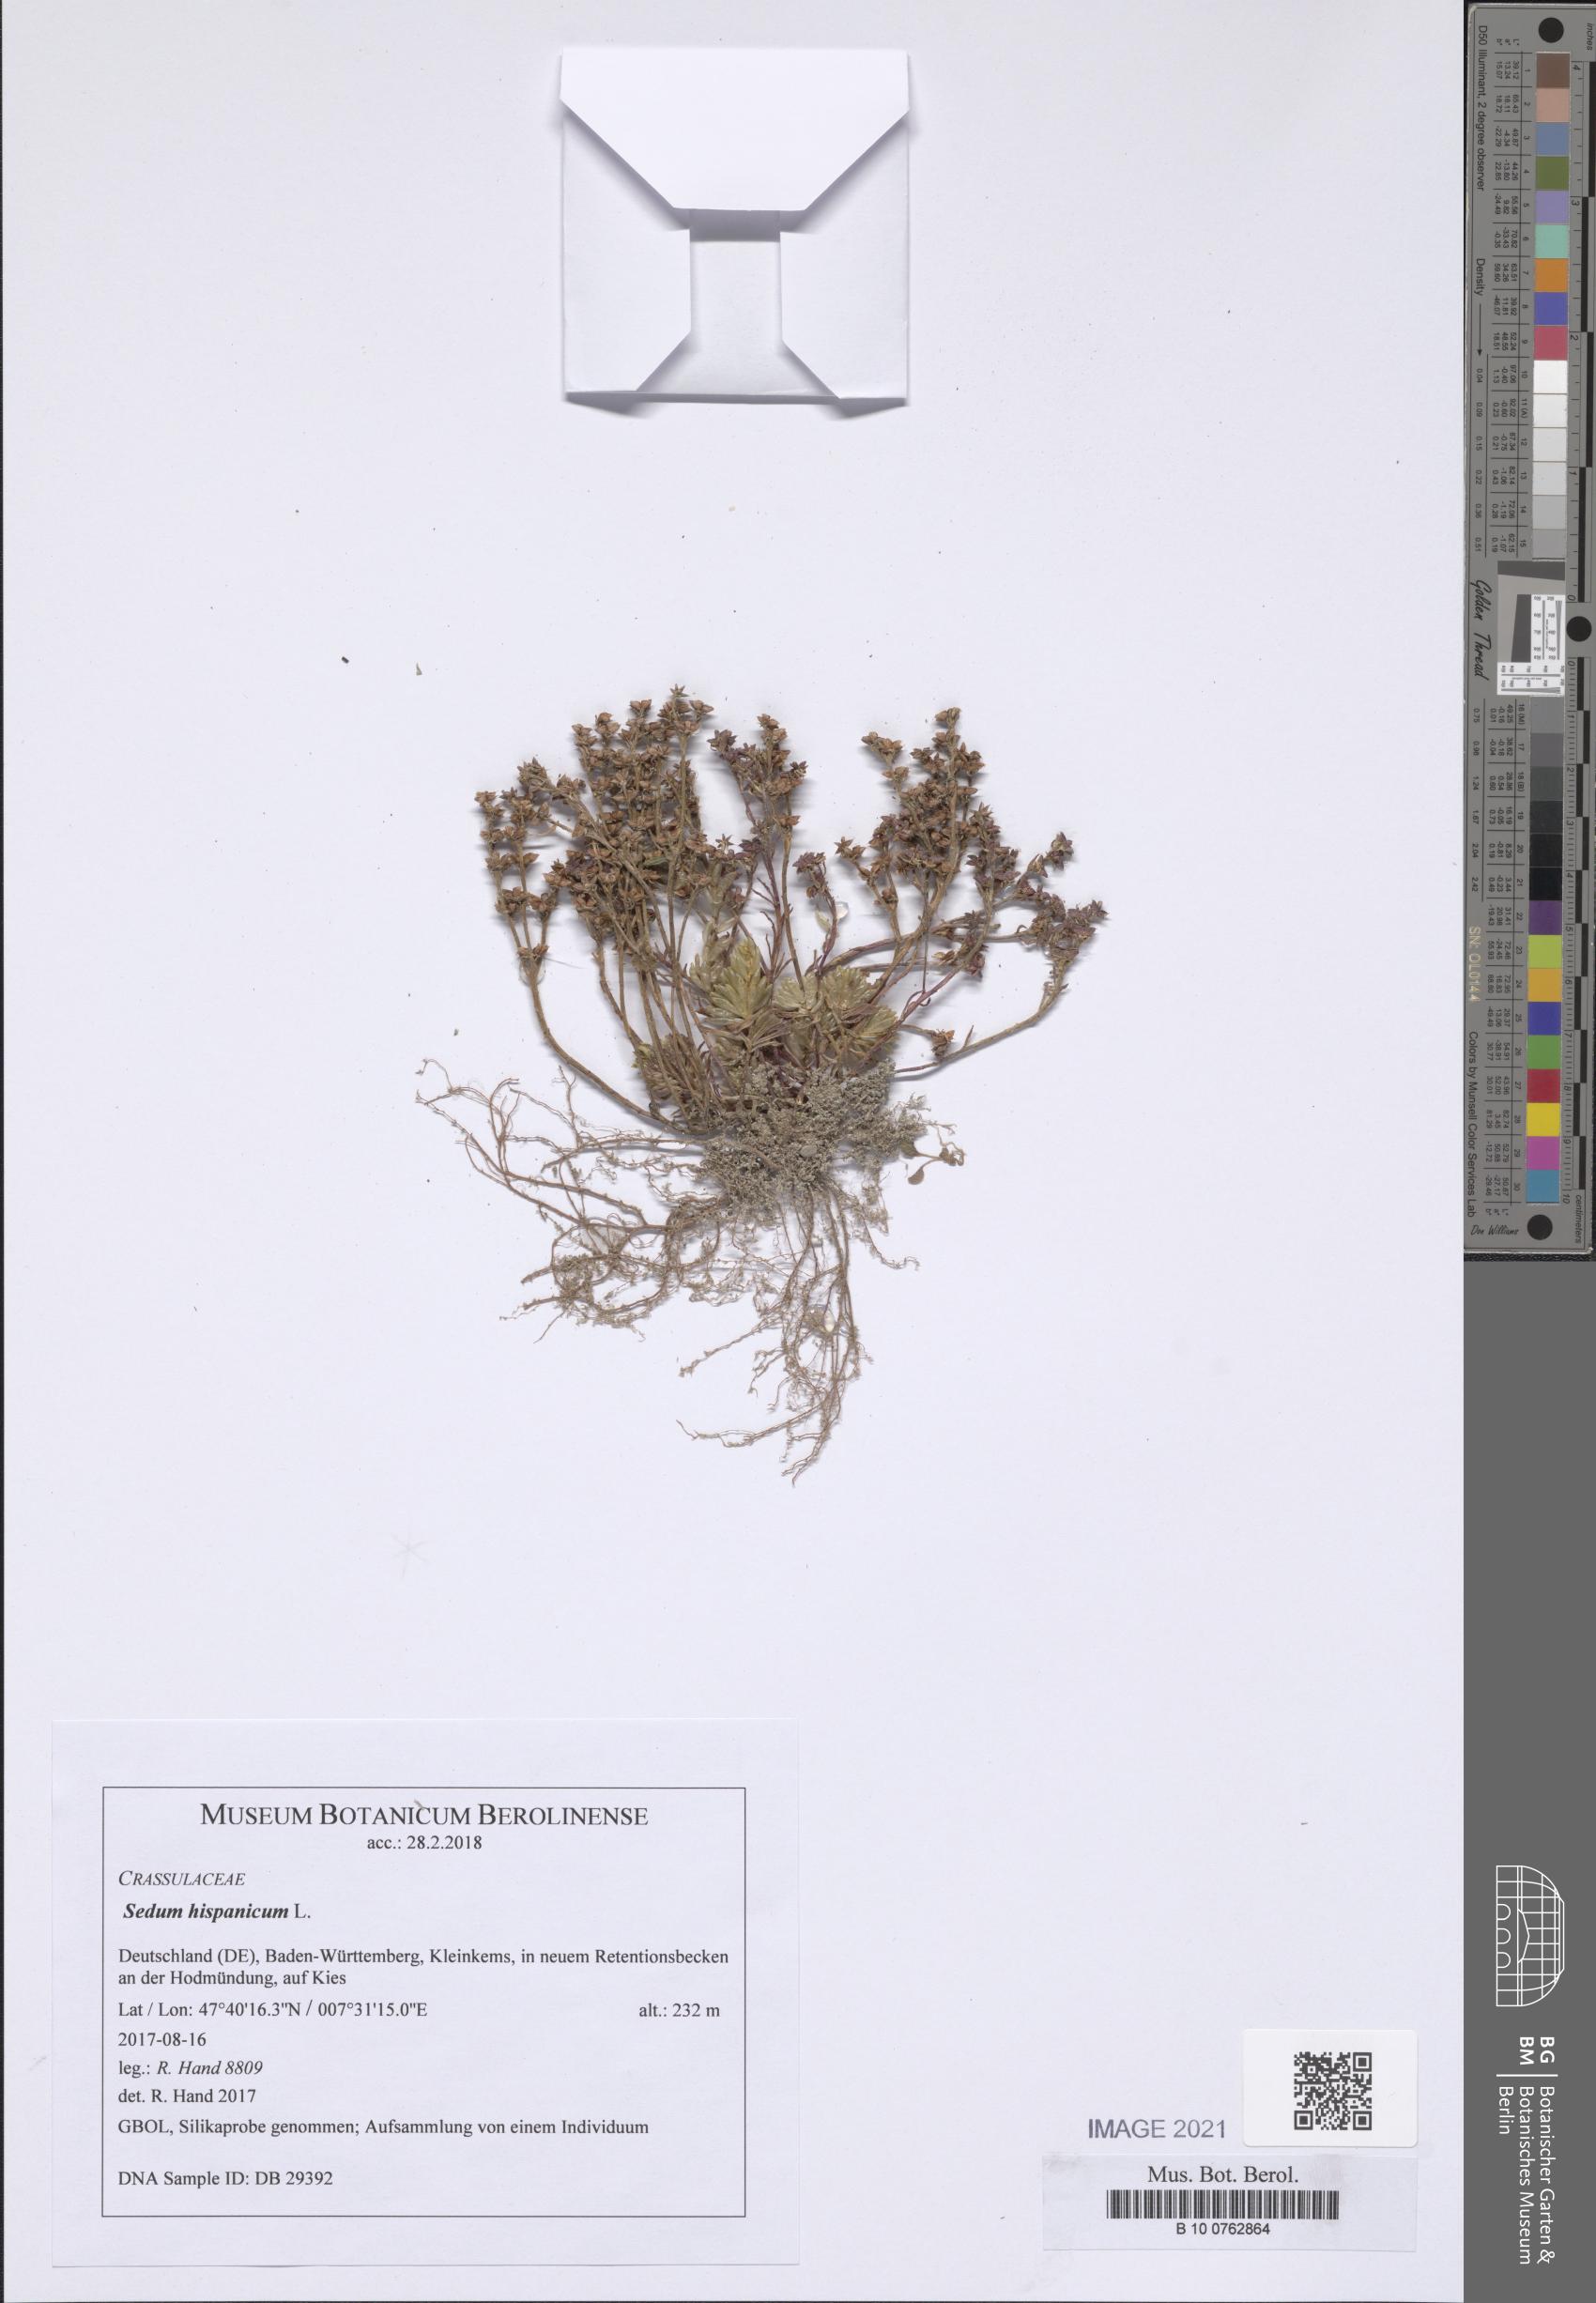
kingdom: Plantae
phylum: Tracheophyta
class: Magnoliopsida
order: Saxifragales
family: Crassulaceae
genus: Sedum
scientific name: Sedum hispanicum
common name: Spanish stonecrop
